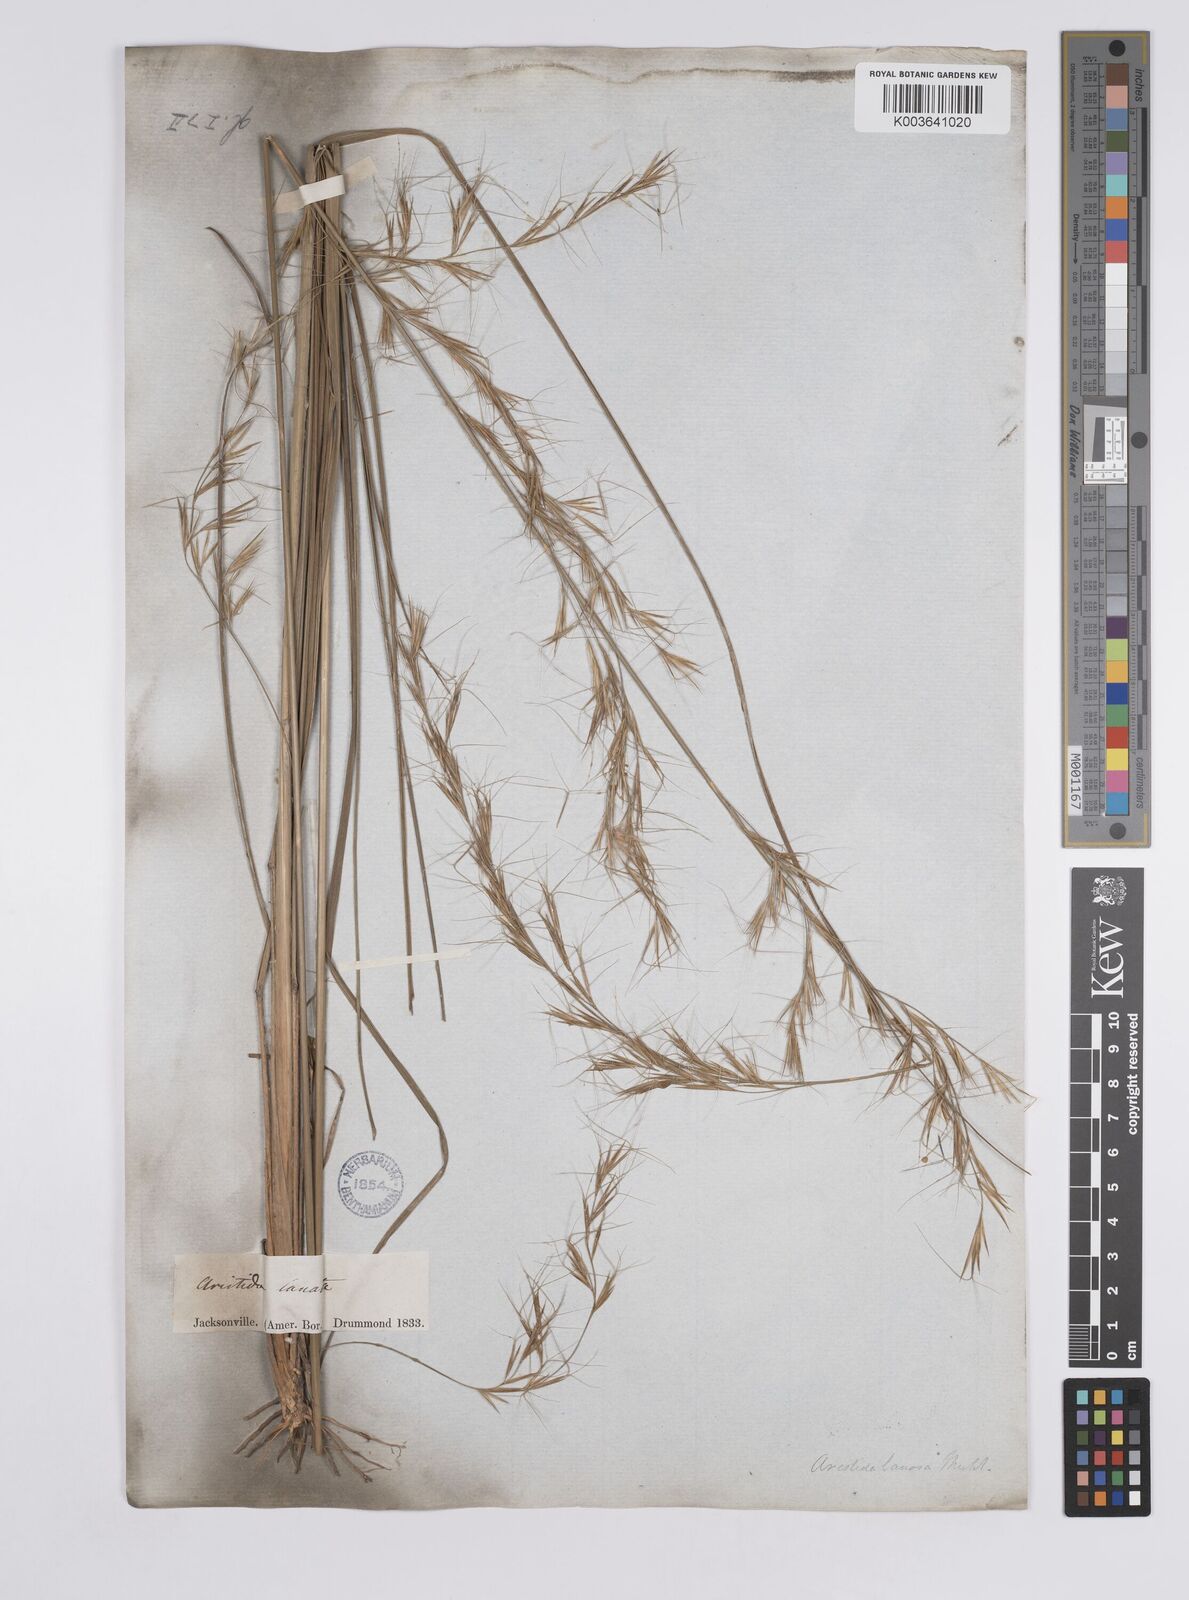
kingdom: Plantae
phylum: Tracheophyta
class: Liliopsida
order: Poales
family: Poaceae
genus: Aristida
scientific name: Aristida lanosa
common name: Woolly three-awn
